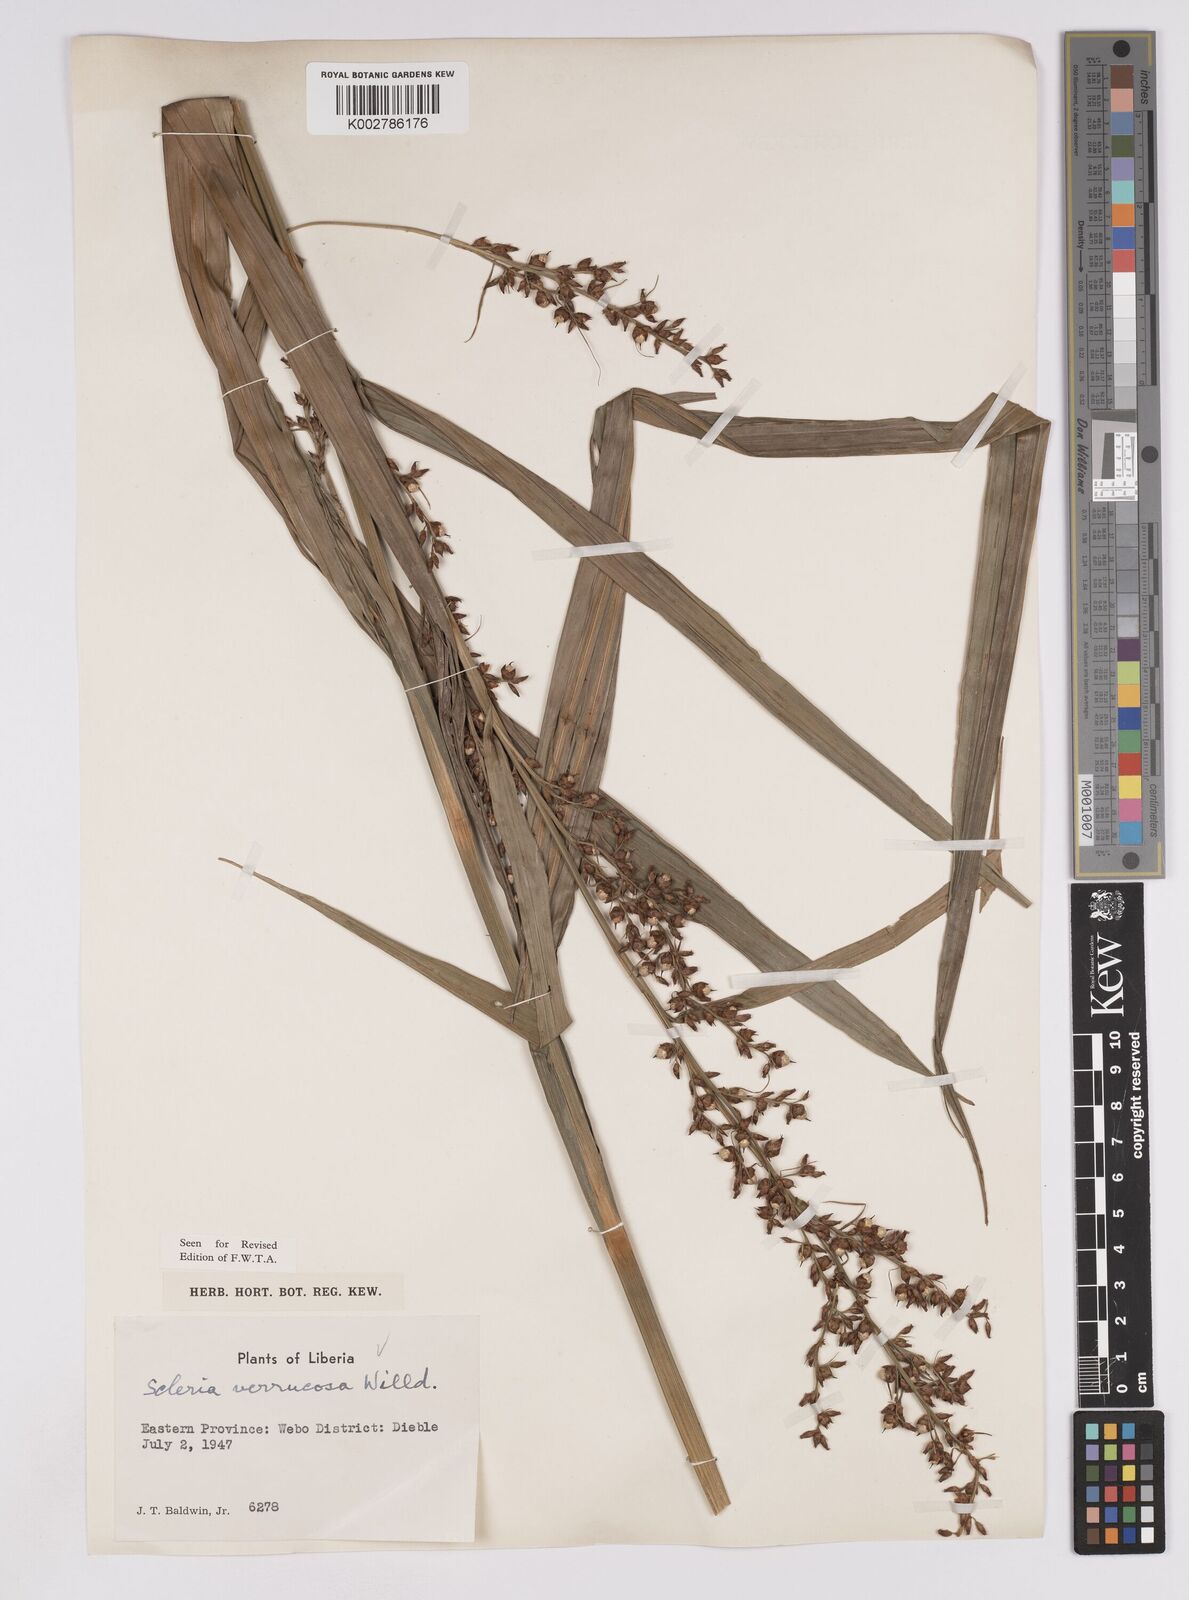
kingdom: Plantae
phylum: Tracheophyta
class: Liliopsida
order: Poales
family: Cyperaceae
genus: Scleria
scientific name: Scleria verrucosa
